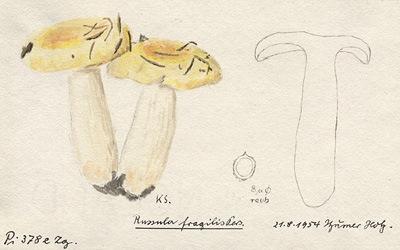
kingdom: Fungi
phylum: Basidiomycota
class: Agaricomycetes
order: Russulales
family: Russulaceae
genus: Russula
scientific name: Russula fragilis
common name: Fragile brittlegill
